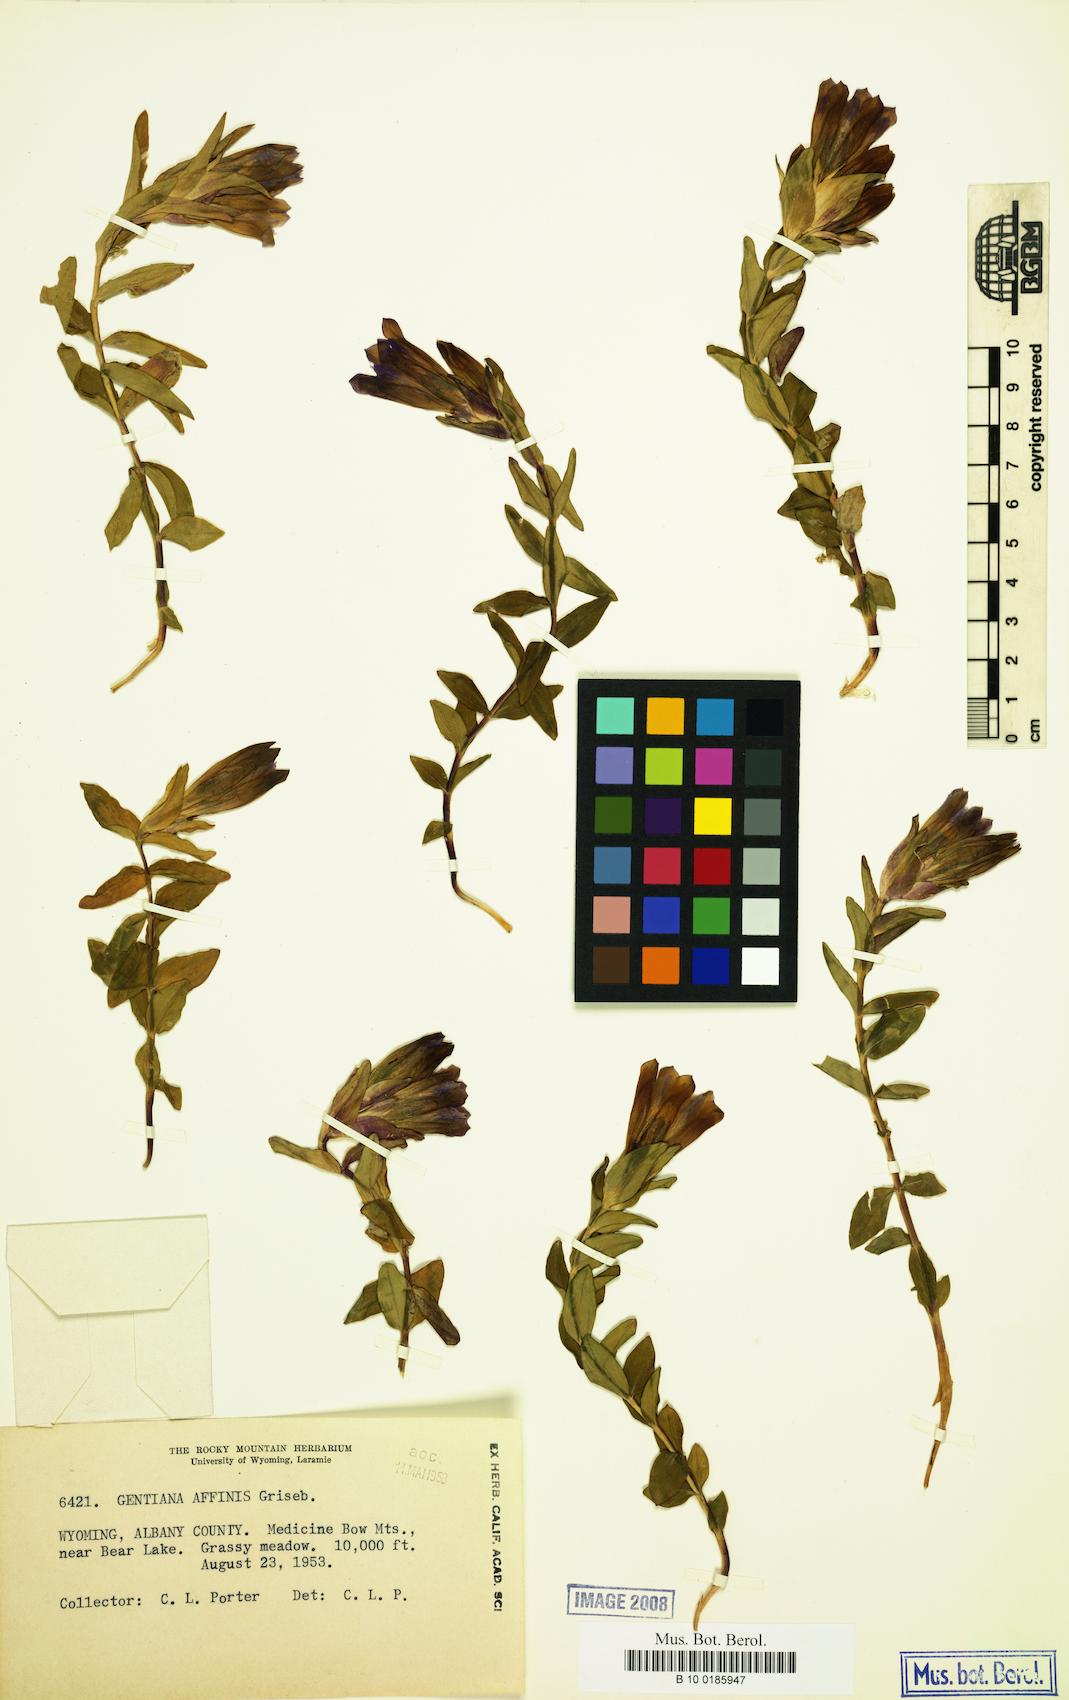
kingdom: Plantae
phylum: Tracheophyta
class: Magnoliopsida
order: Gentianales
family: Gentianaceae
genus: Gentiana
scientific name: Gentiana affinis
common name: Rocky mountain gentian
